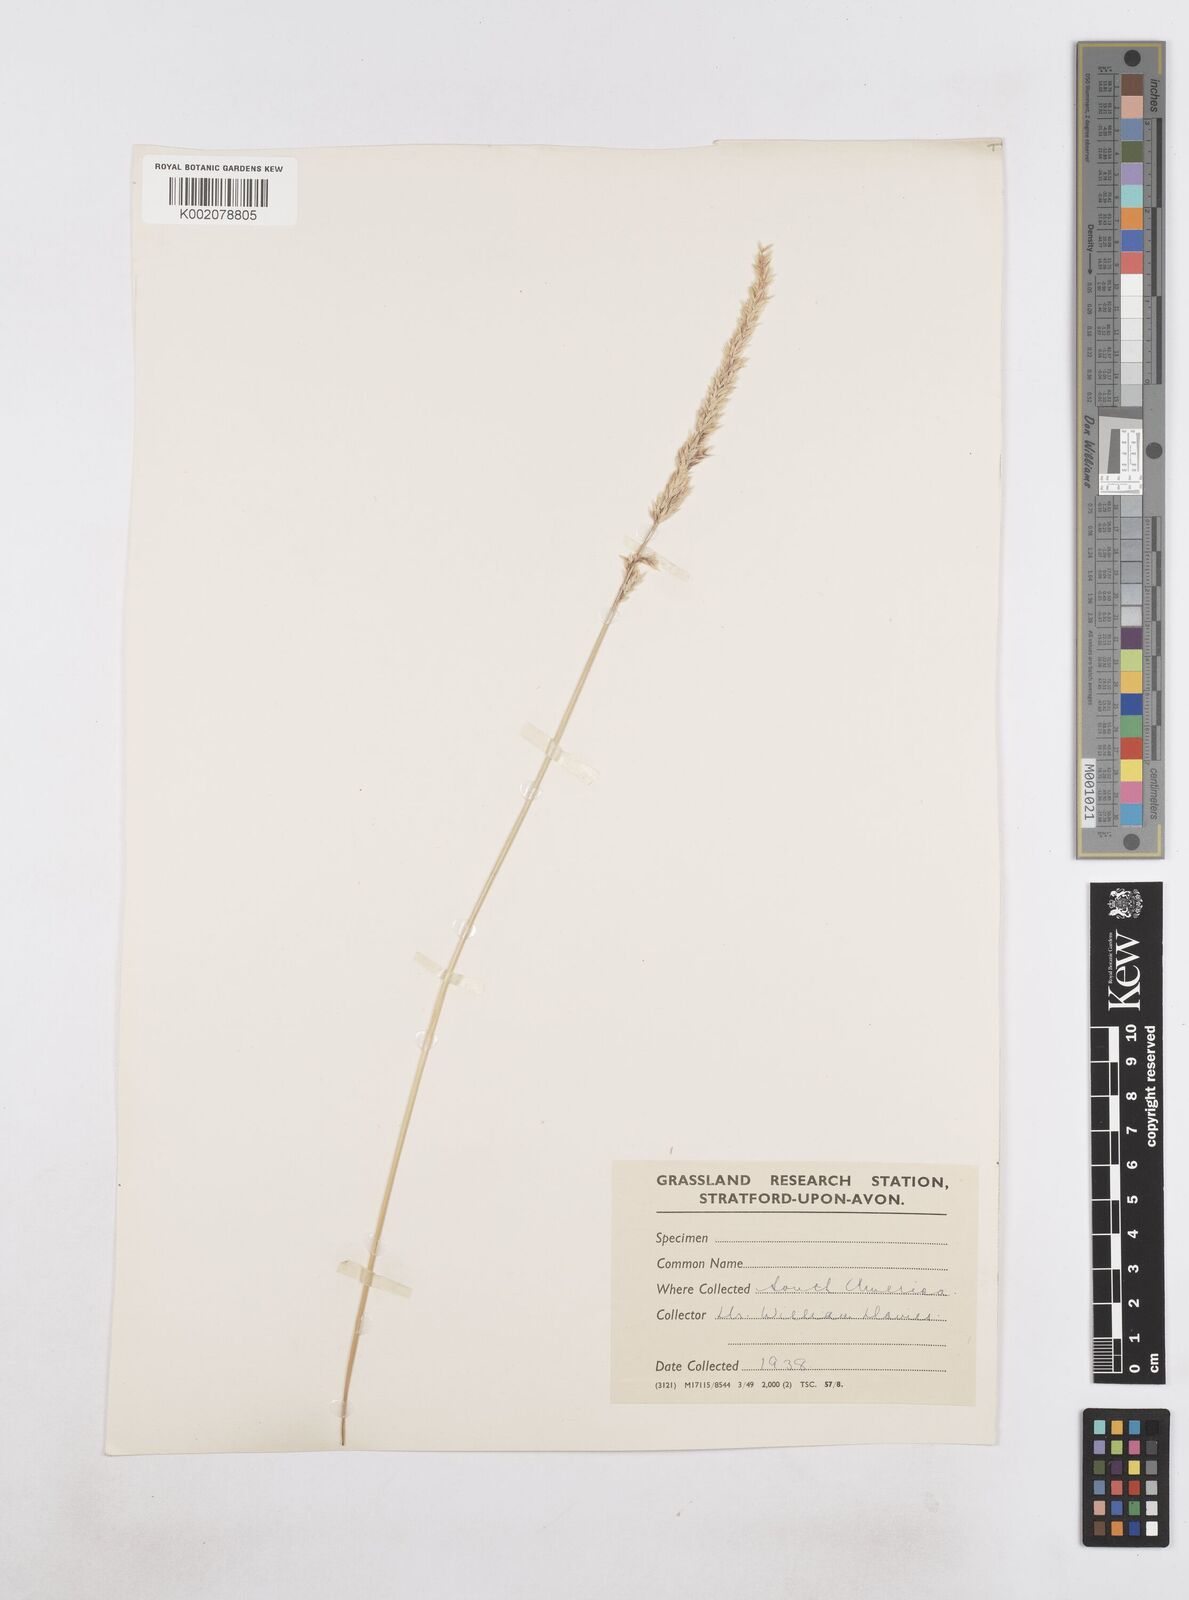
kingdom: Plantae
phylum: Tracheophyta
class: Liliopsida
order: Poales
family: Poaceae
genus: Poa
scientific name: Poa
